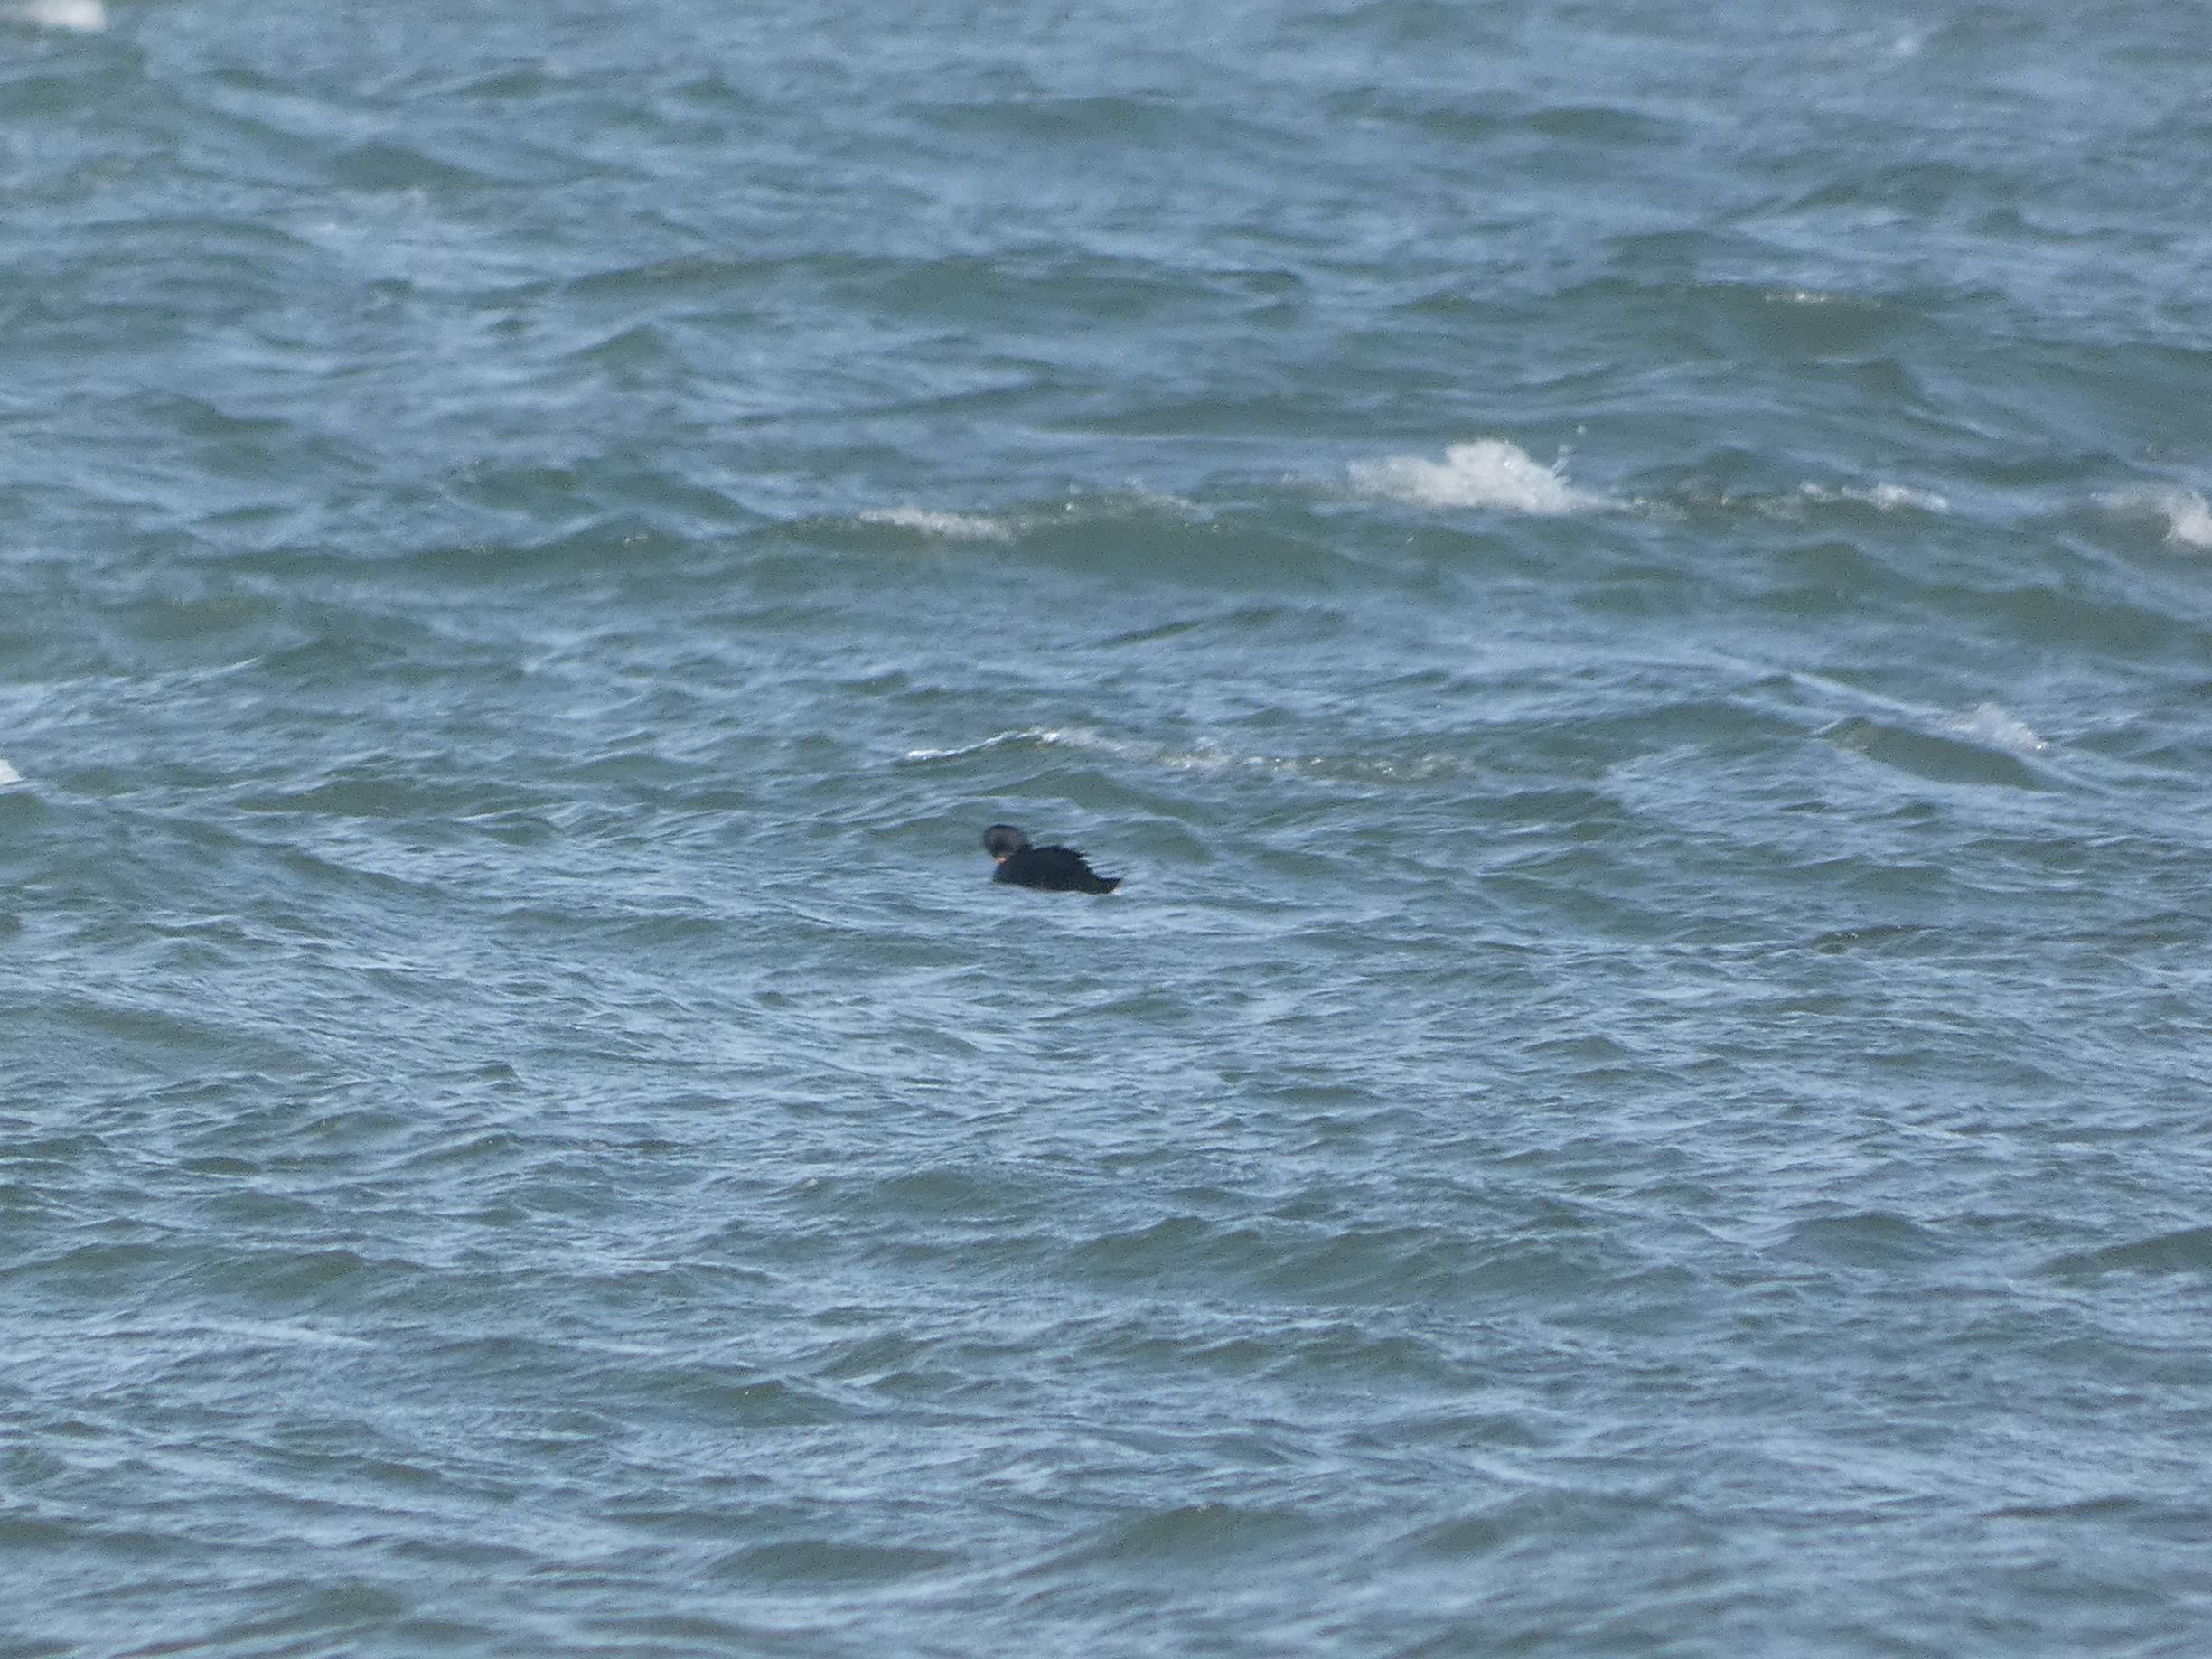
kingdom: Animalia
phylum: Chordata
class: Aves
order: Anseriformes
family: Anatidae
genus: Melanitta
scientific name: Melanitta nigra
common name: Sortand
